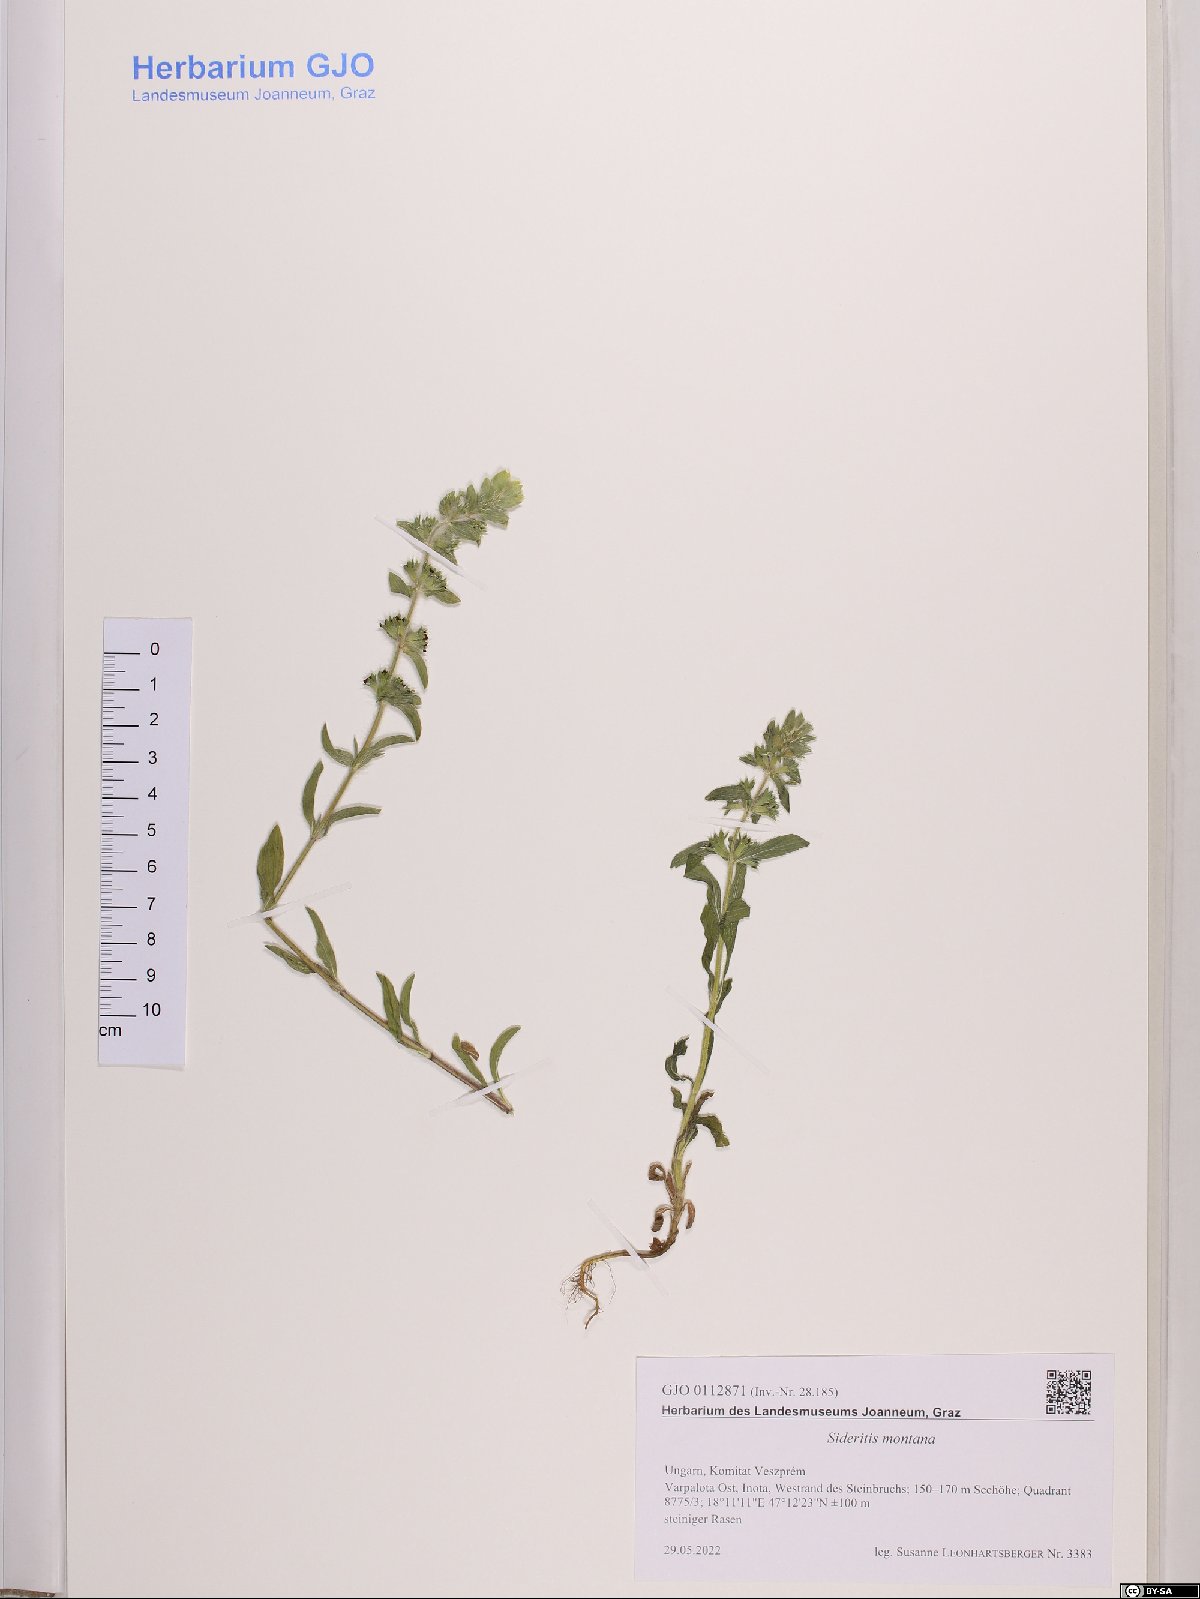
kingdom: Plantae
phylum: Tracheophyta
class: Magnoliopsida
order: Lamiales
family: Lamiaceae
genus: Sideritis
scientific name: Sideritis montana
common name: Mountain ironwort
